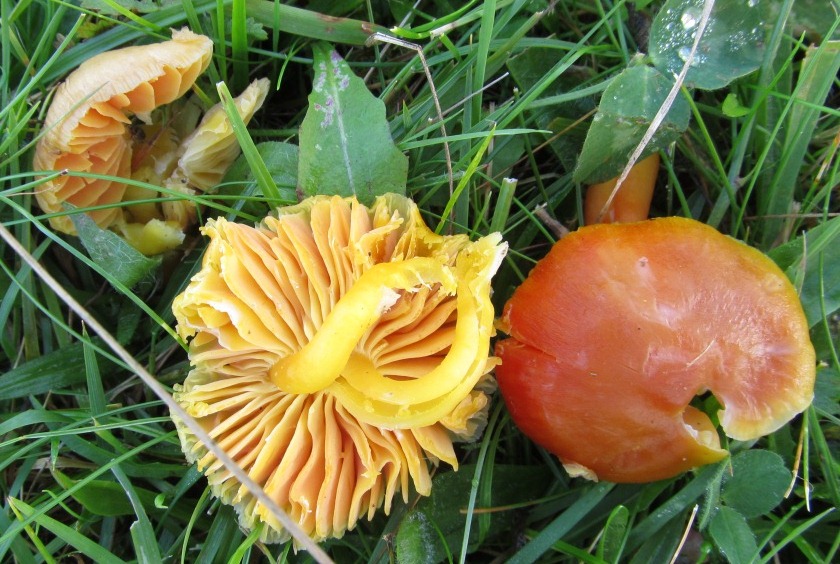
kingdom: Fungi
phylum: Basidiomycota
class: Agaricomycetes
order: Agaricales
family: Hygrophoraceae
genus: Hygrocybe
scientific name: Hygrocybe quieta
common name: tæge-vokshat
